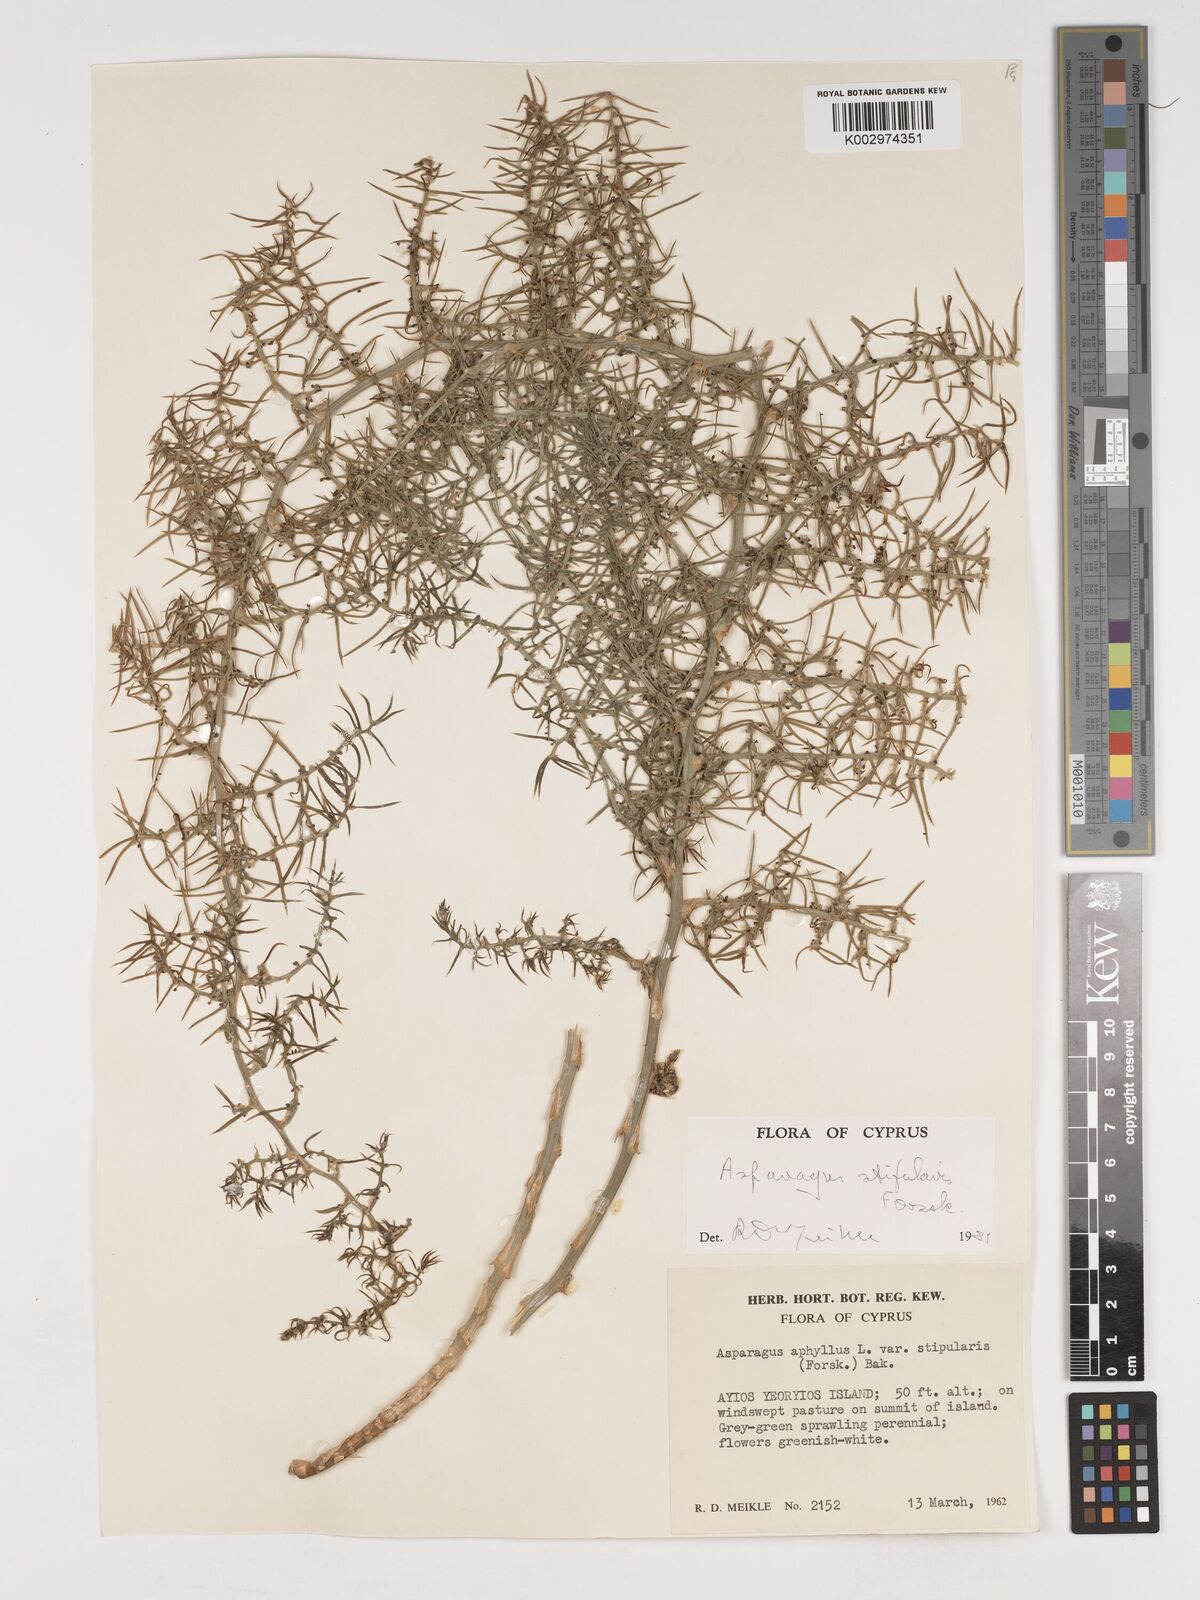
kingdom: Plantae
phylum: Tracheophyta
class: Liliopsida
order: Asparagales
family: Asparagaceae
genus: Asparagus
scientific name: Asparagus aphyllus
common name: Mediterranean asparagus
